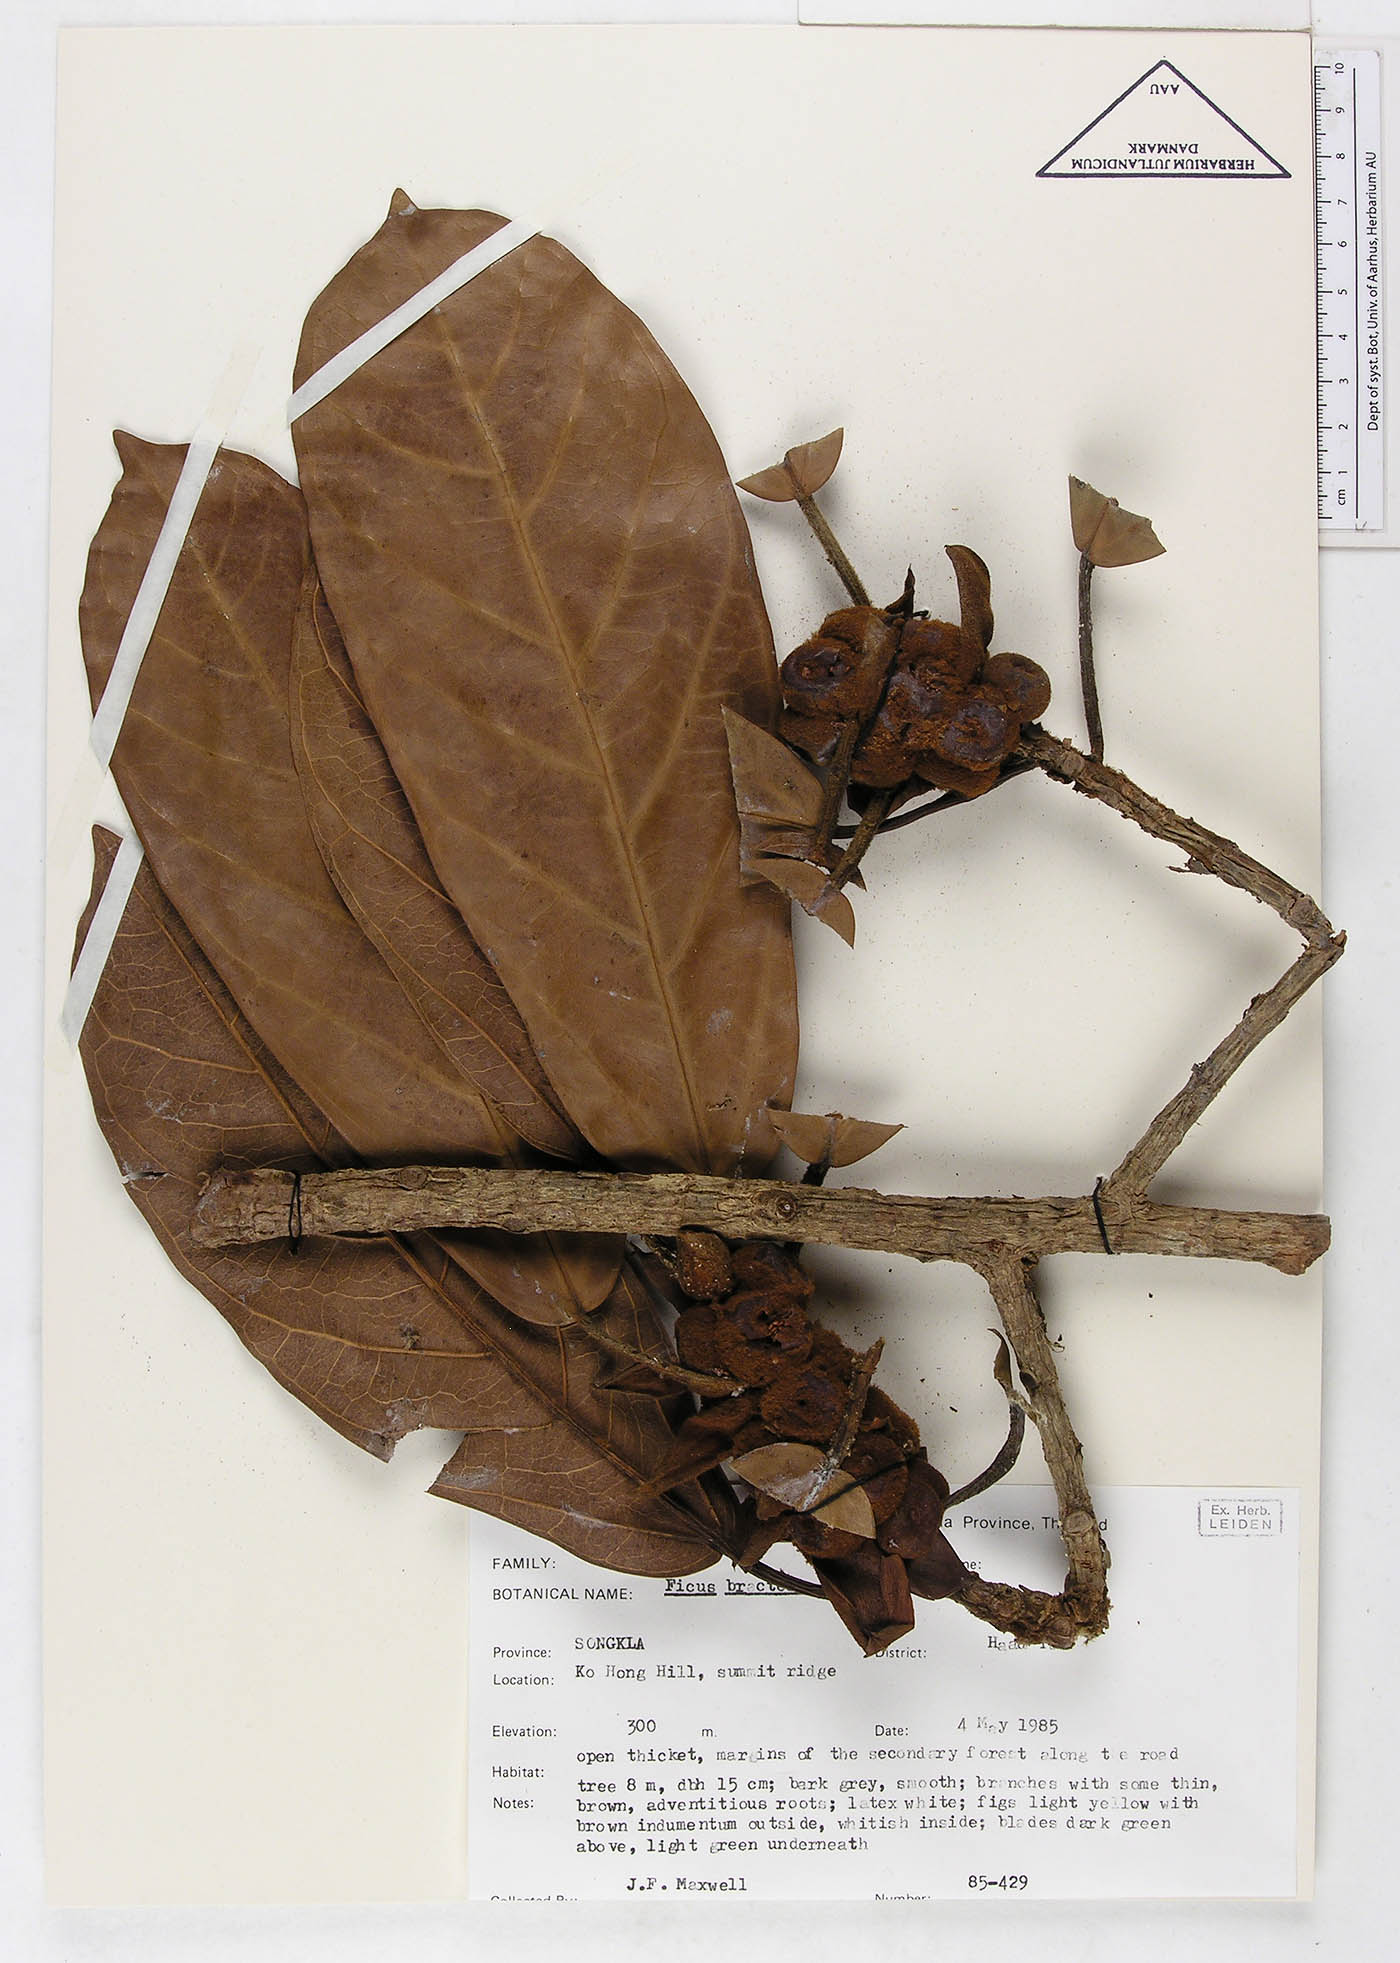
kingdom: Plantae
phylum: Tracheophyta
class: Magnoliopsida
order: Rosales
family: Moraceae
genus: Ficus
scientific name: Ficus consociata
